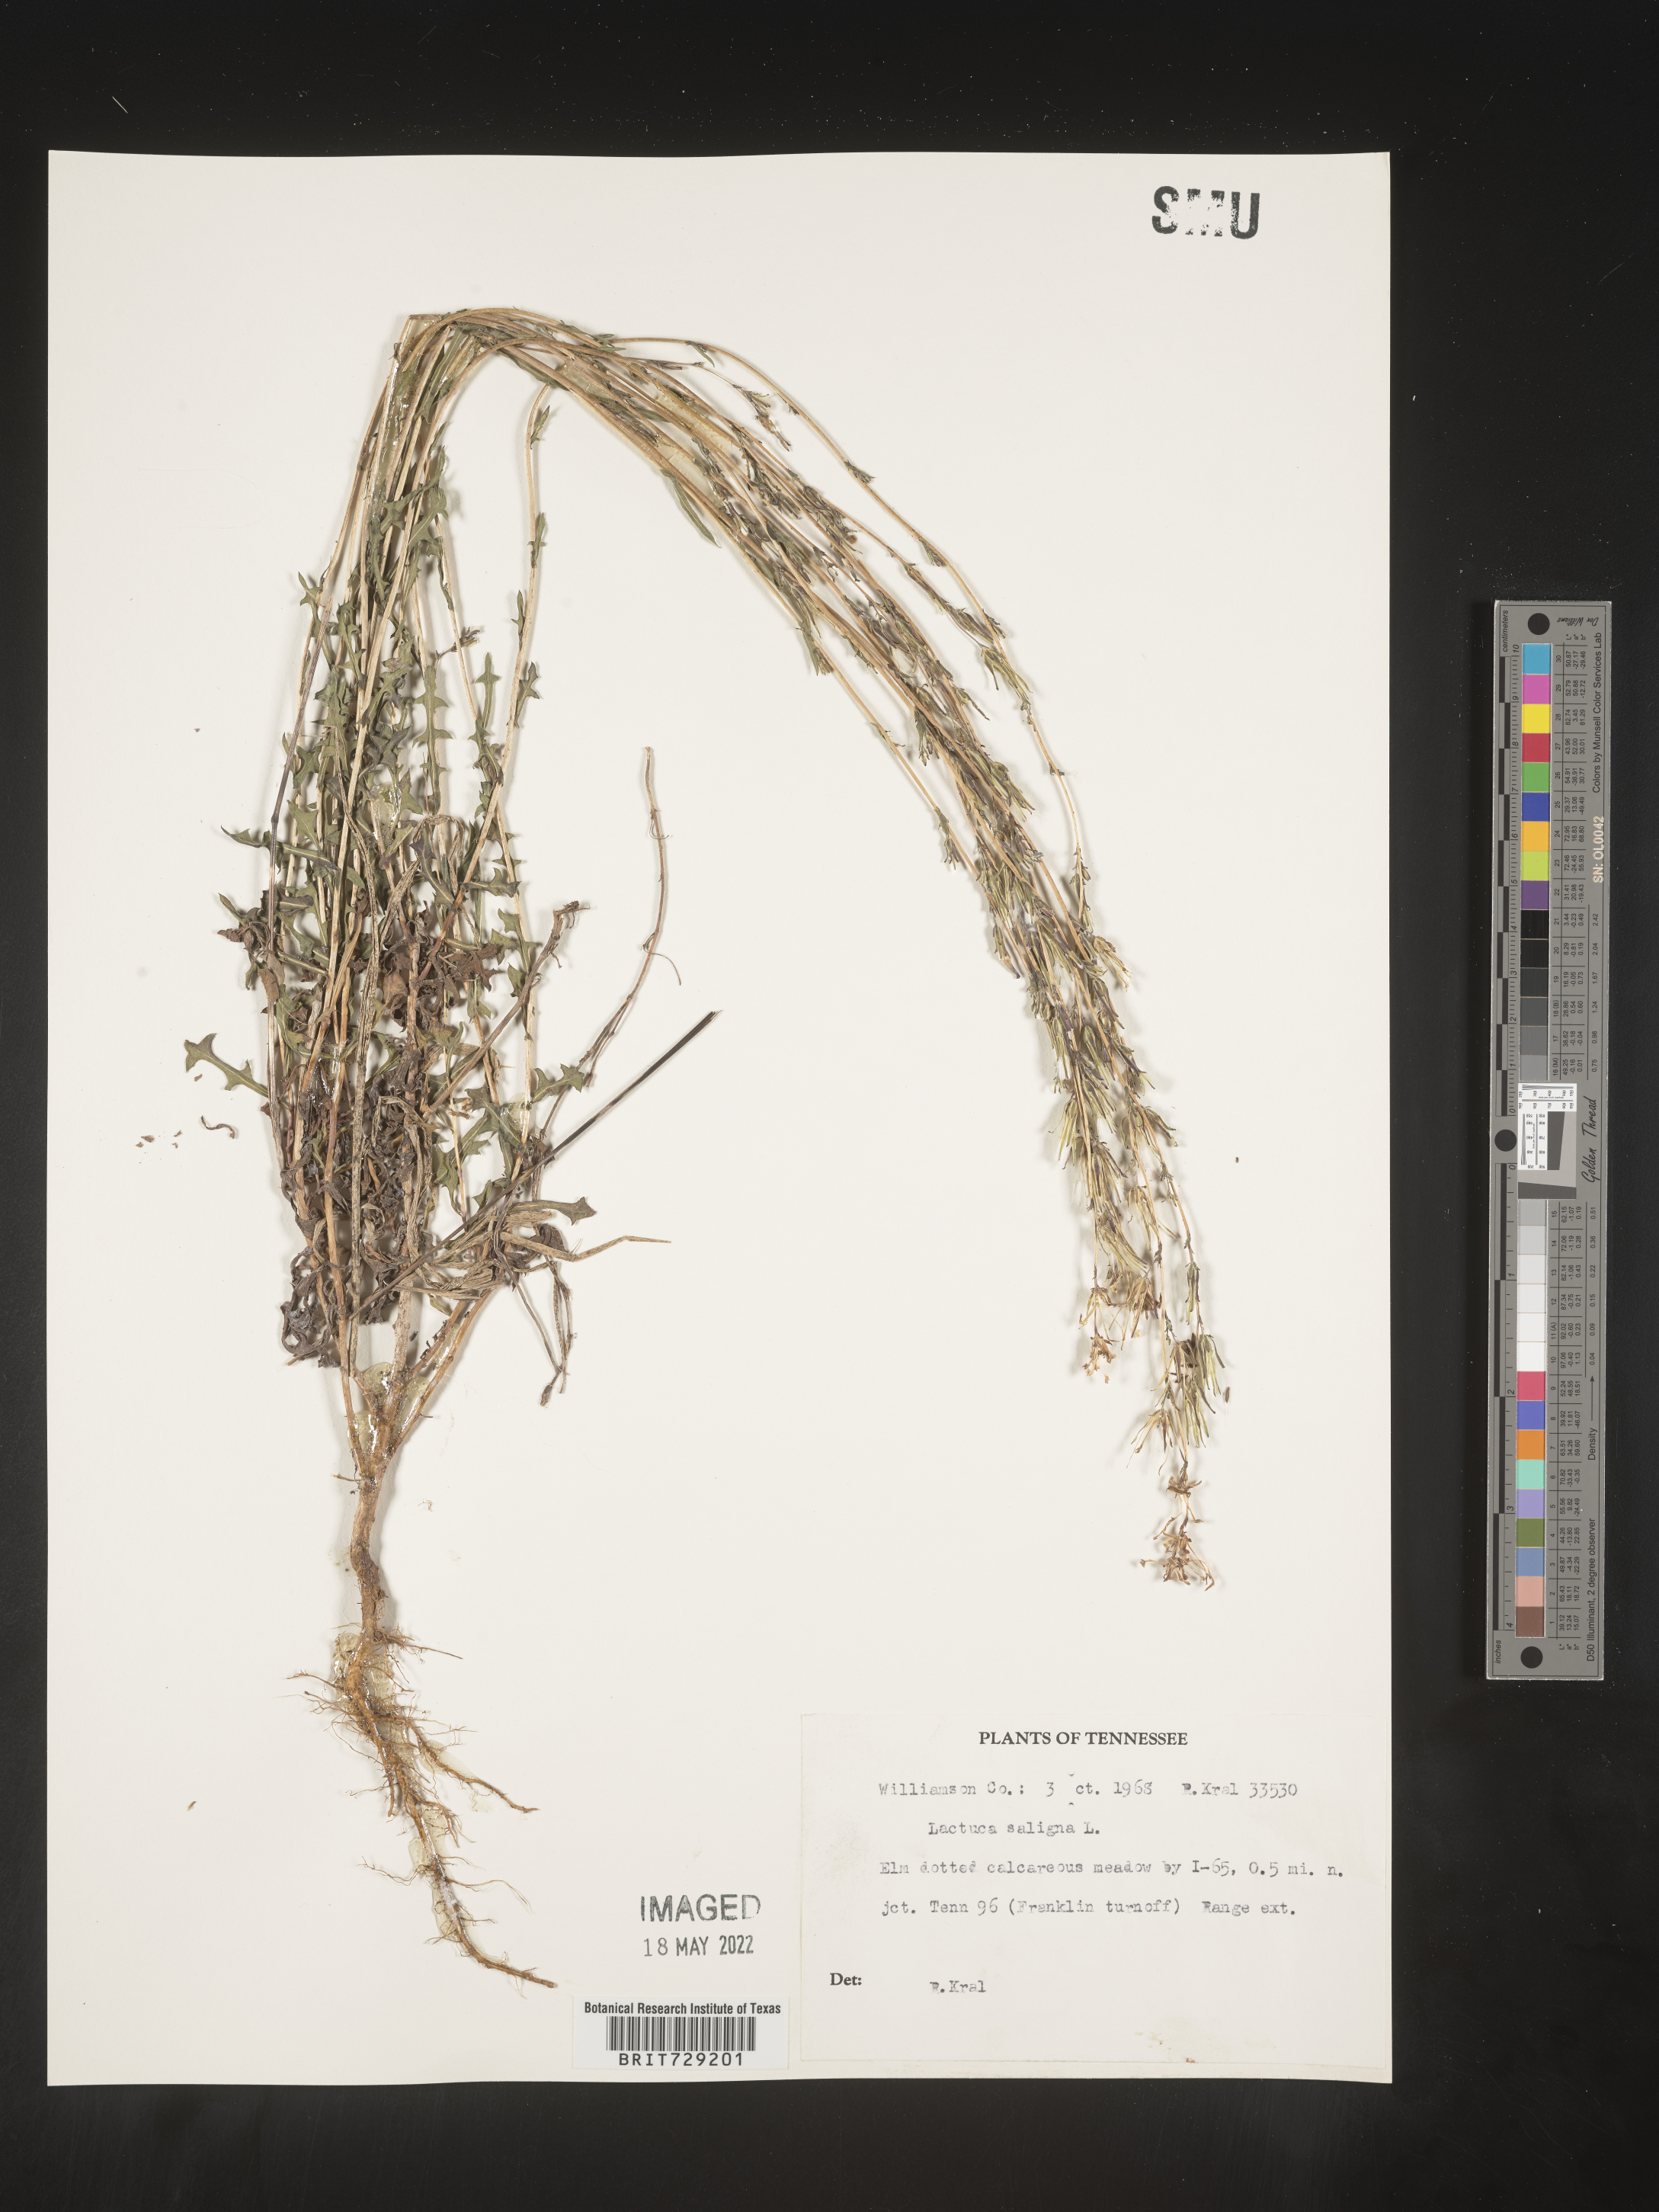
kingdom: Plantae
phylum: Tracheophyta
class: Magnoliopsida
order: Asterales
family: Asteraceae
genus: Lactuca
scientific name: Lactuca saligna
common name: Wild lettuce
